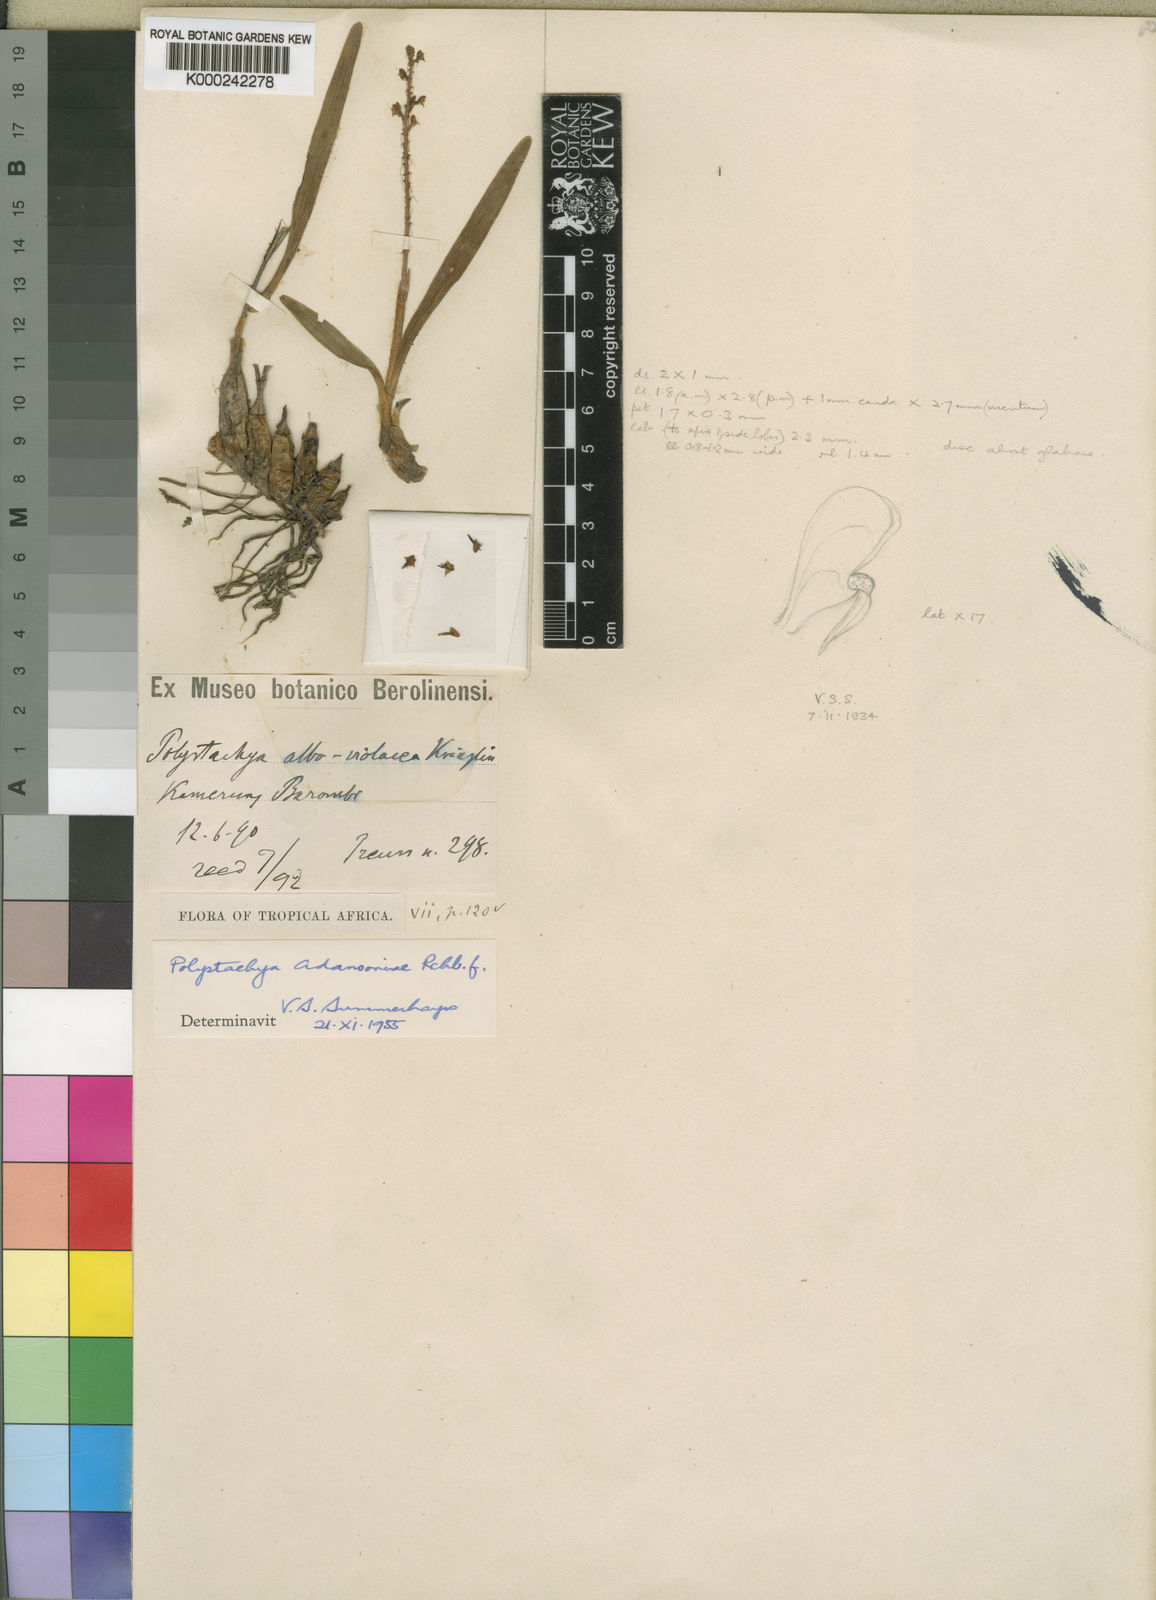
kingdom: Plantae
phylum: Tracheophyta
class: Liliopsida
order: Asparagales
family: Orchidaceae
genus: Polystachya
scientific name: Polystachya adansoniae
